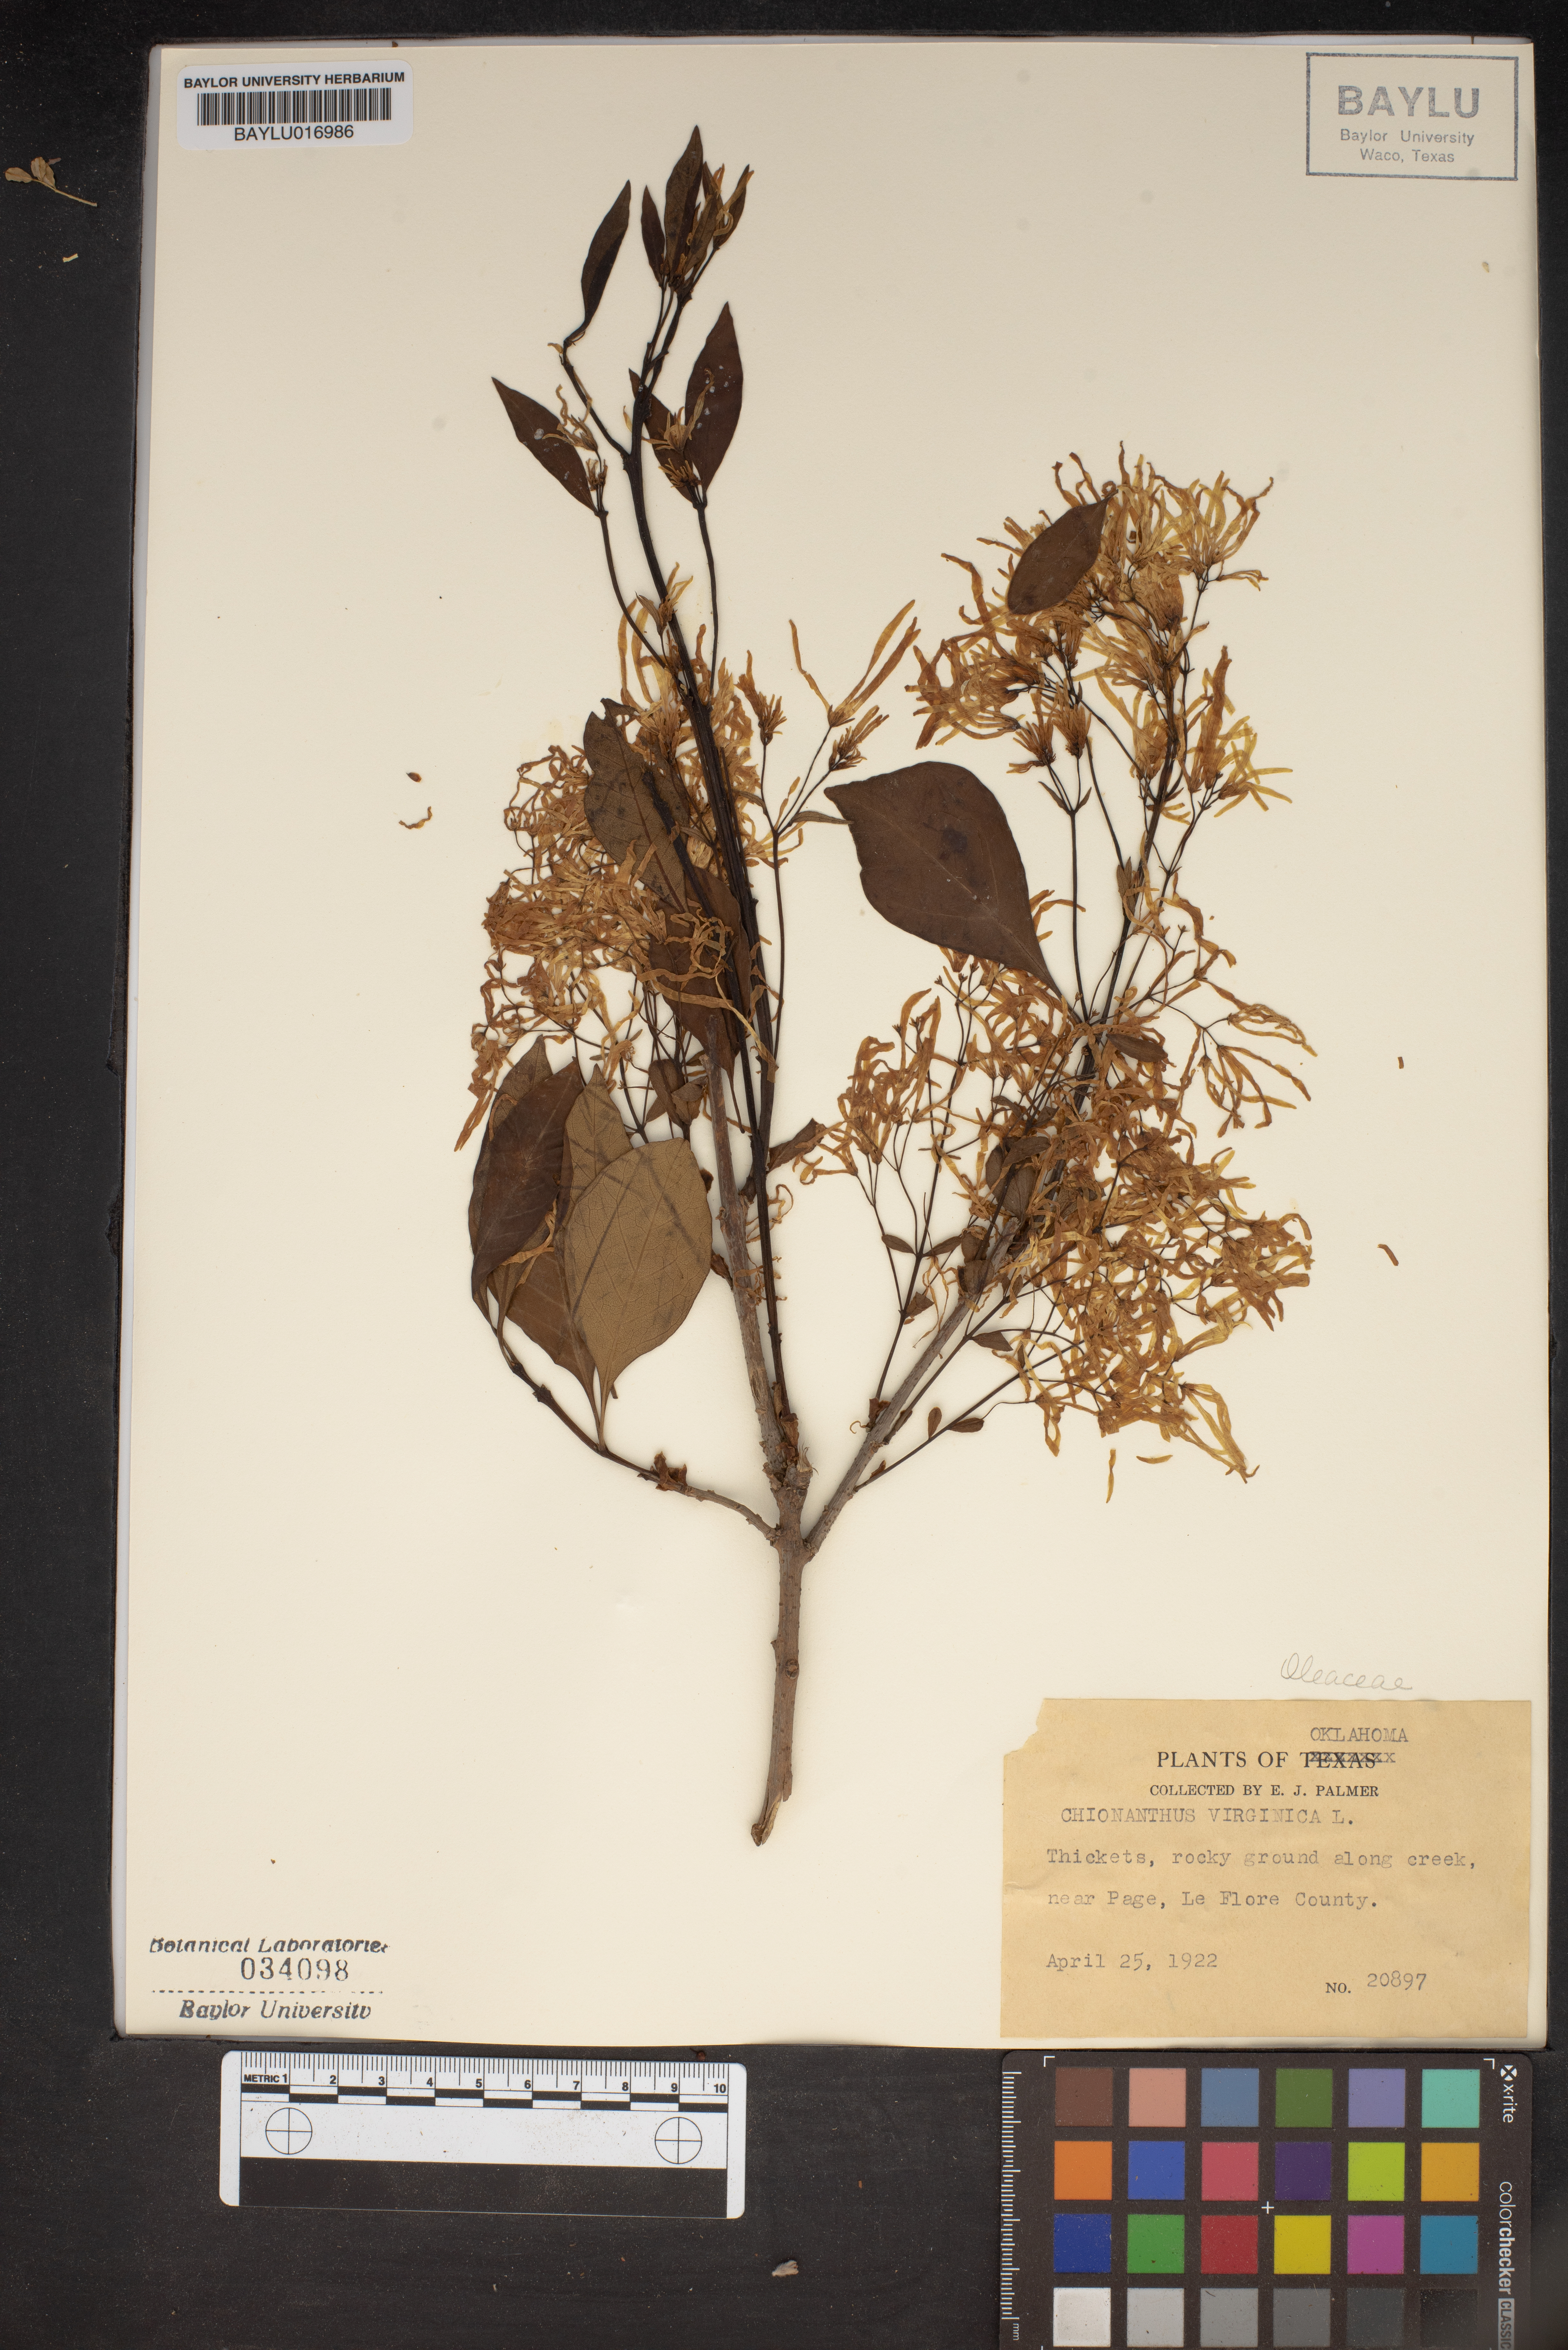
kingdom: Plantae
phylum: Tracheophyta
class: Magnoliopsida
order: Lamiales
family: Oleaceae
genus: Chionanthus
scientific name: Chionanthus virginicus
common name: American fringetree
